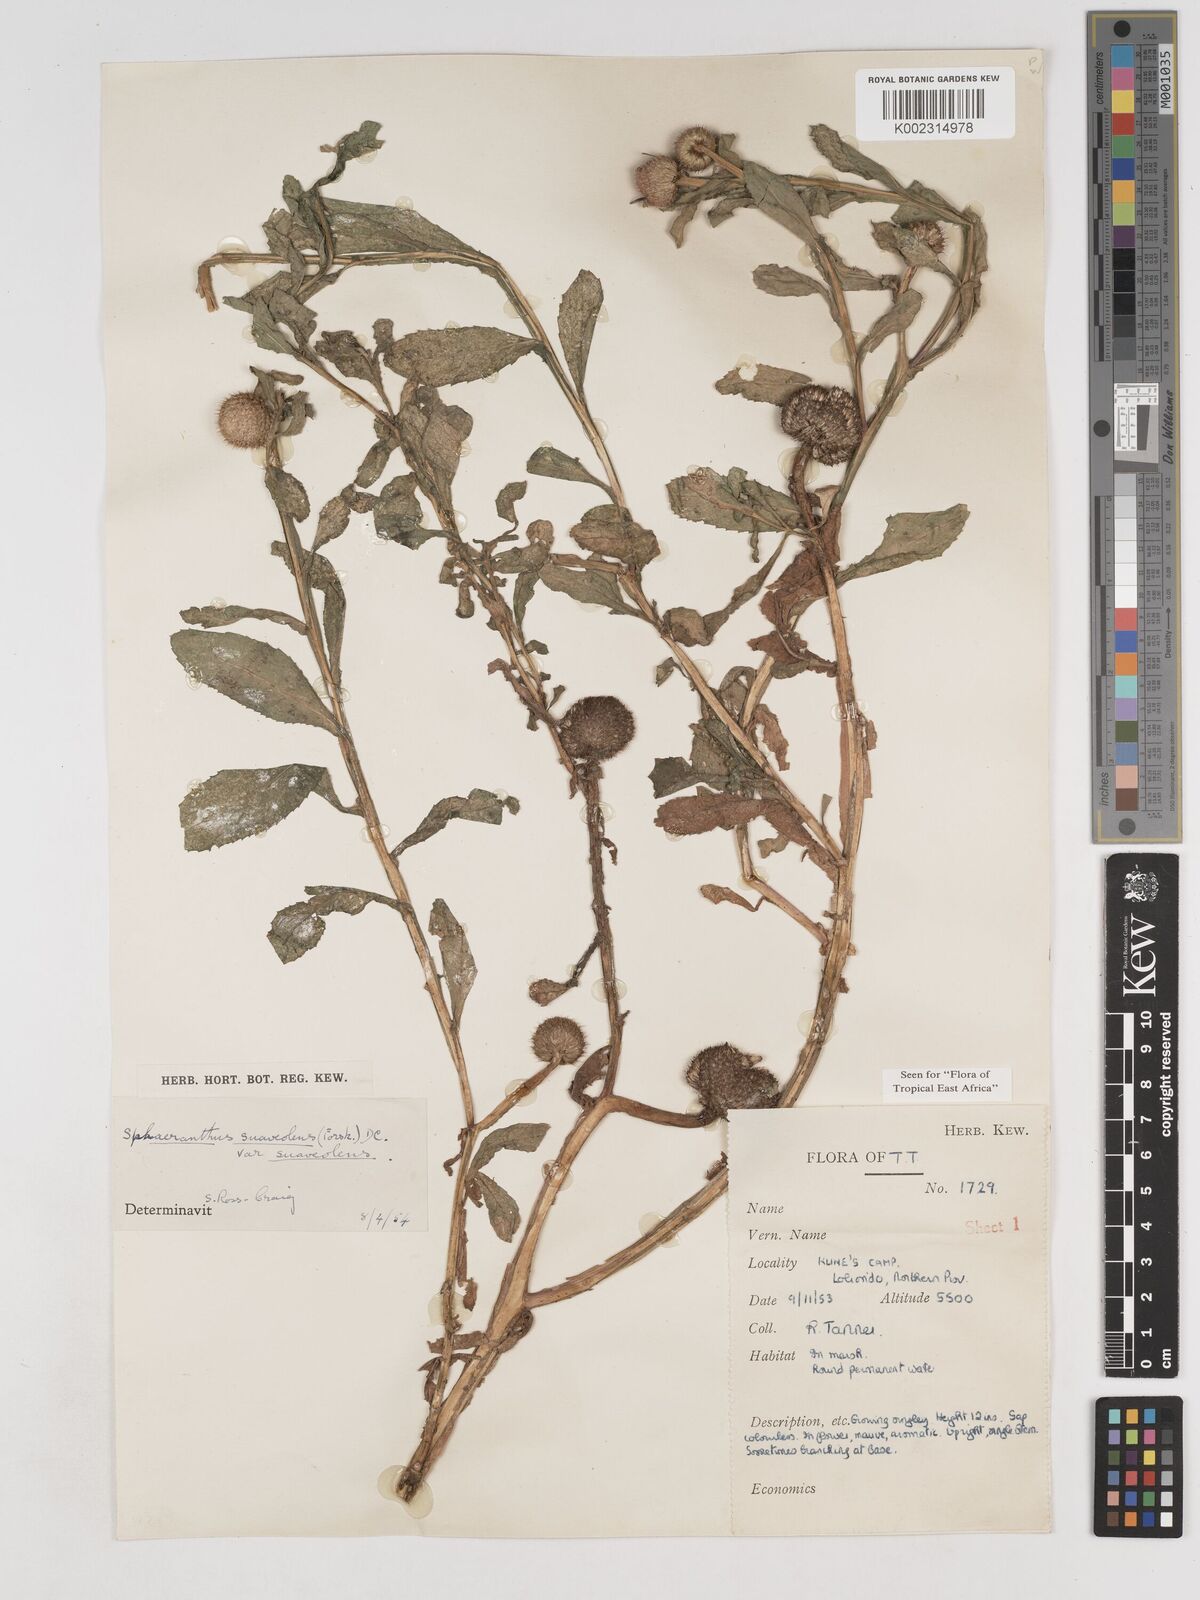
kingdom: Plantae
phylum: Tracheophyta
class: Magnoliopsida
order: Asterales
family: Asteraceae
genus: Sphaeranthus
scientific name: Sphaeranthus suaveolens
